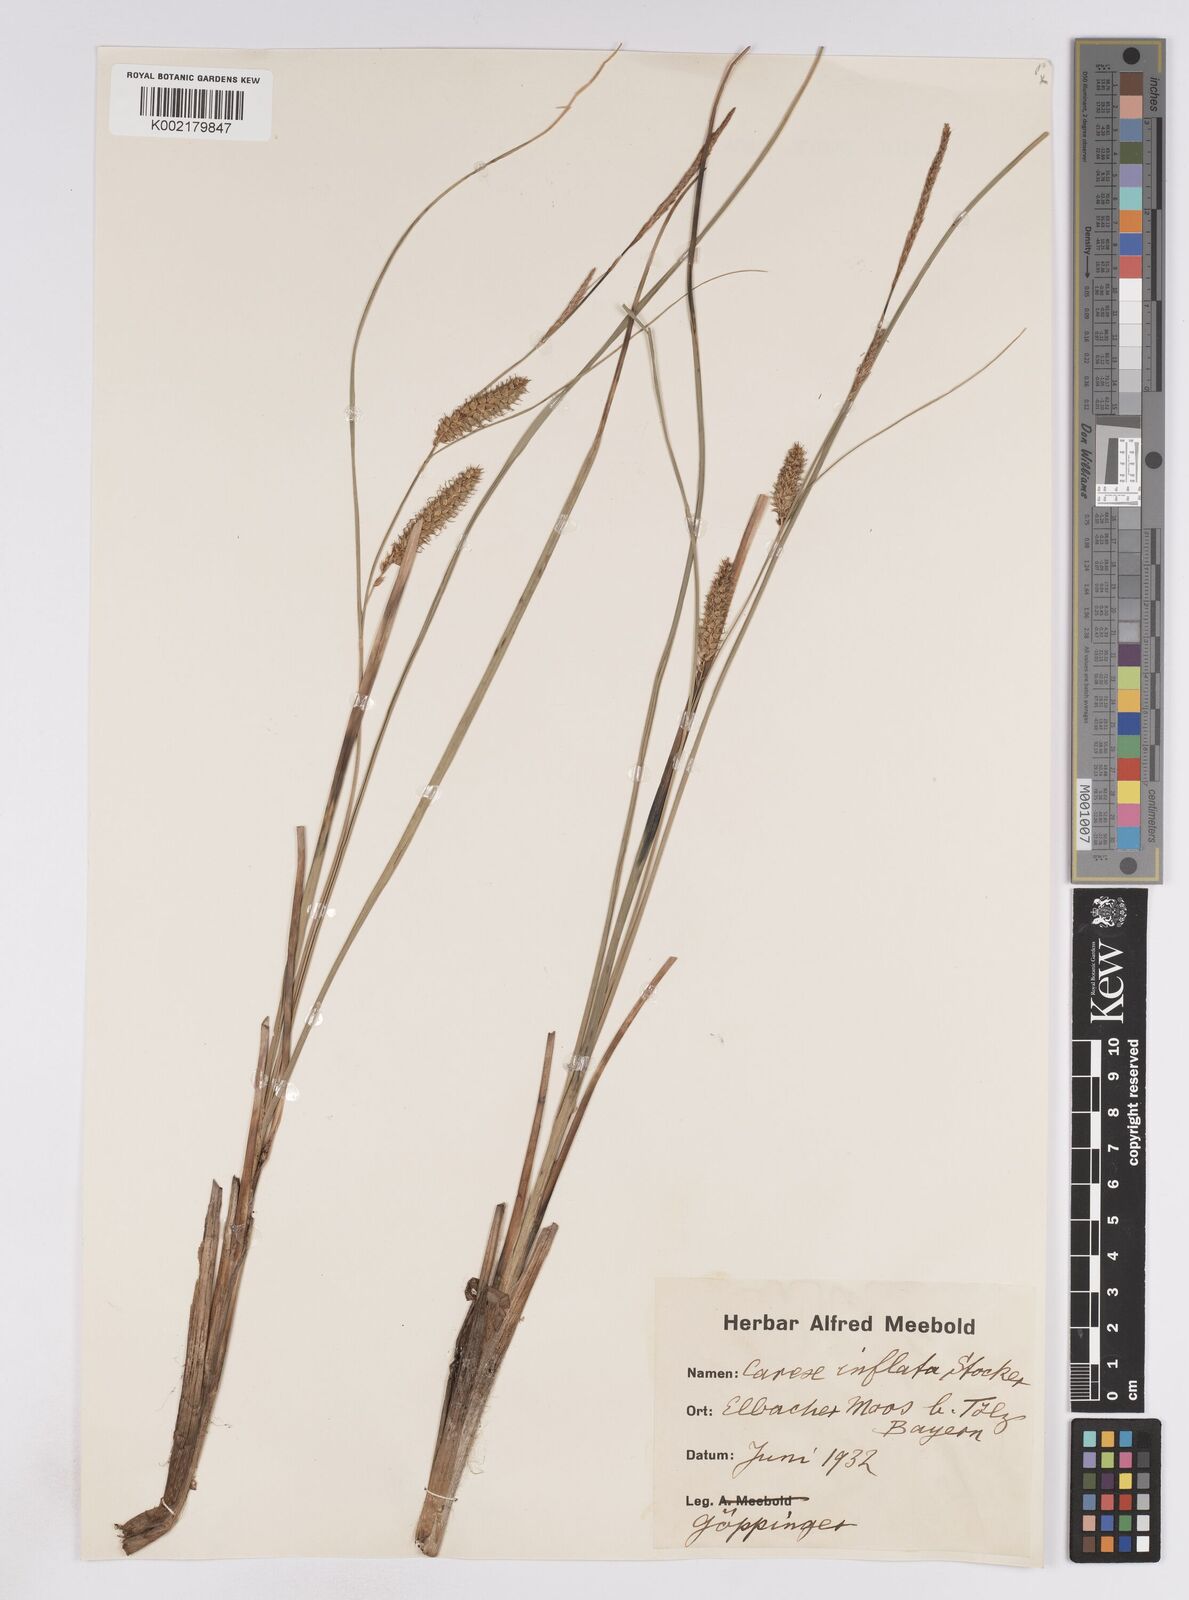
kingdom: Plantae
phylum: Tracheophyta
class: Liliopsida
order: Poales
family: Cyperaceae
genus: Carex
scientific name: Carex rostrata
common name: Bottle sedge
